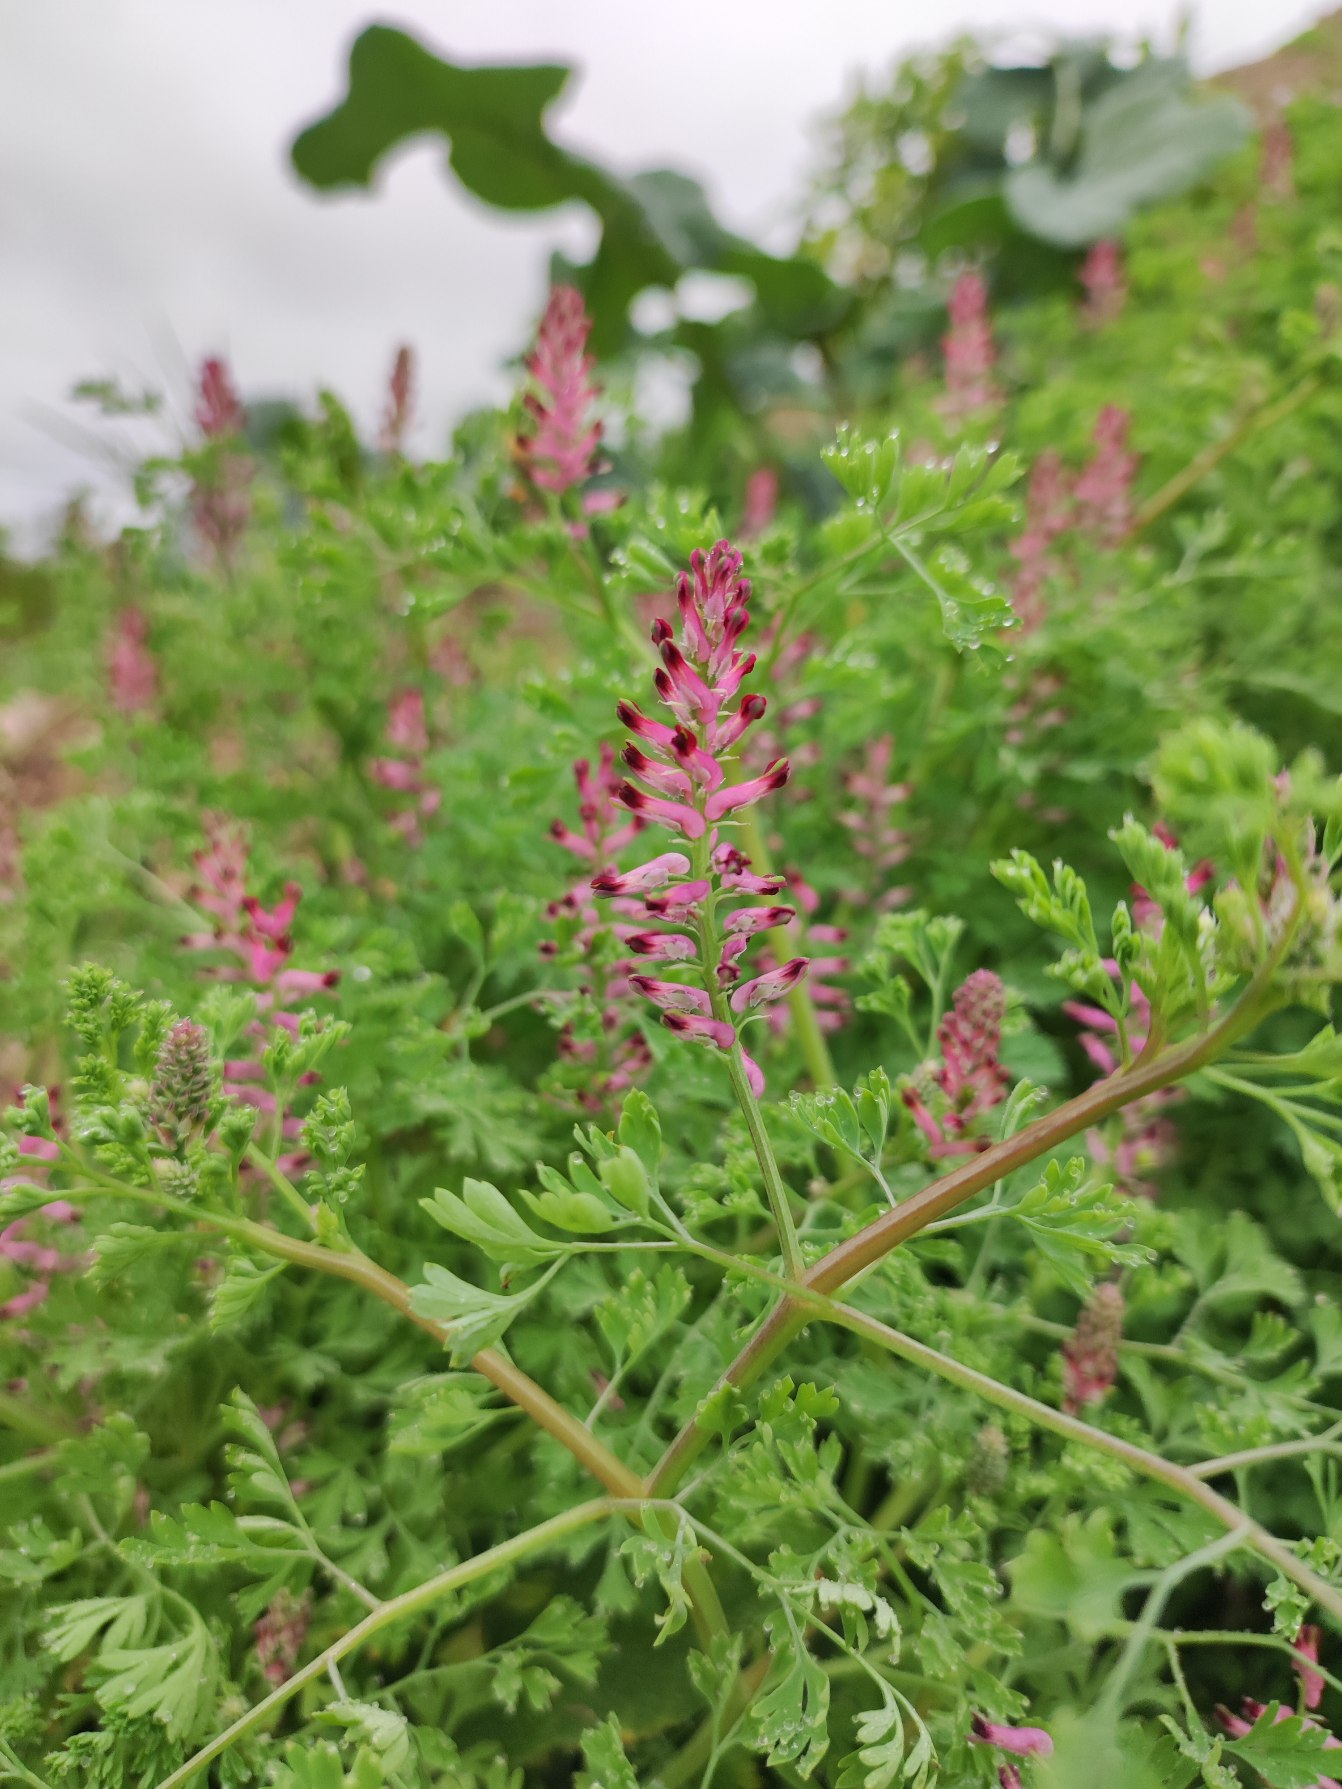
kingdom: Plantae
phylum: Tracheophyta
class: Magnoliopsida
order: Ranunculales
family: Papaveraceae
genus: Fumaria
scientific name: Fumaria officinalis
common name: Læge-jordrøg
